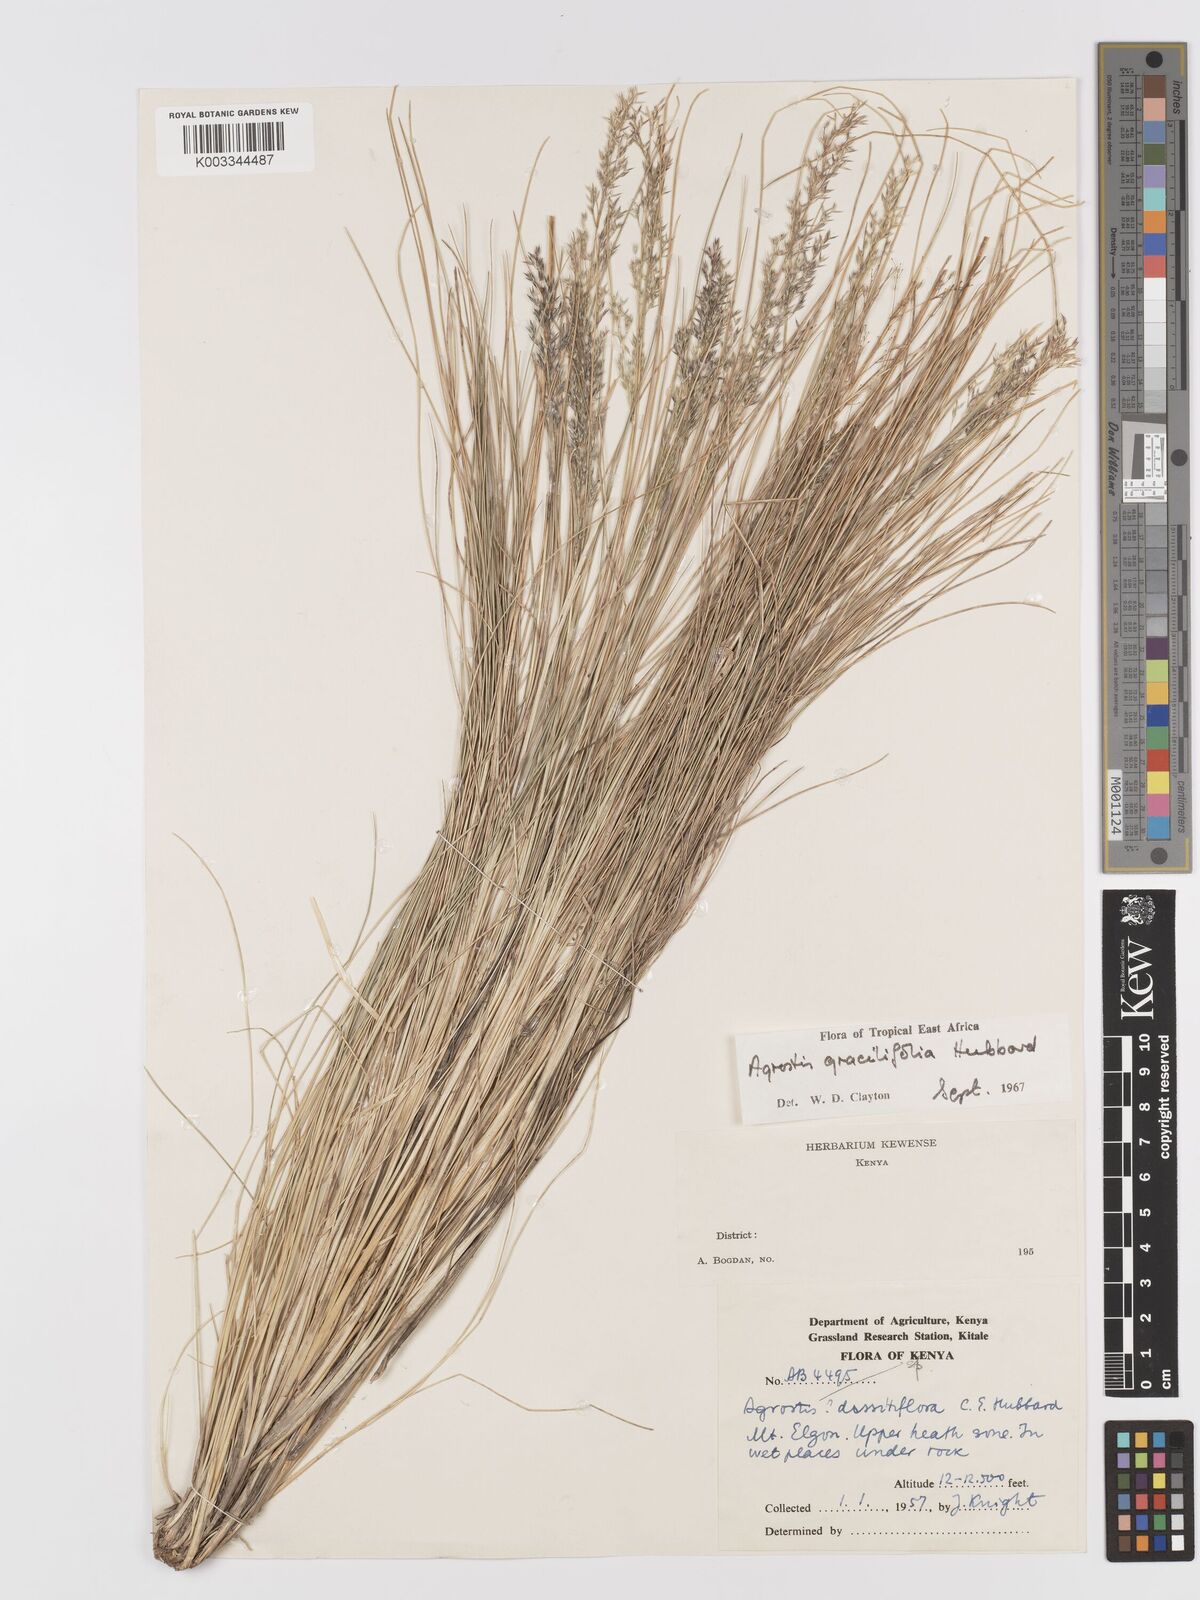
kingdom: Plantae
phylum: Tracheophyta
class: Liliopsida
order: Poales
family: Poaceae
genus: Agrostis
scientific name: Agrostis gracilifolia
